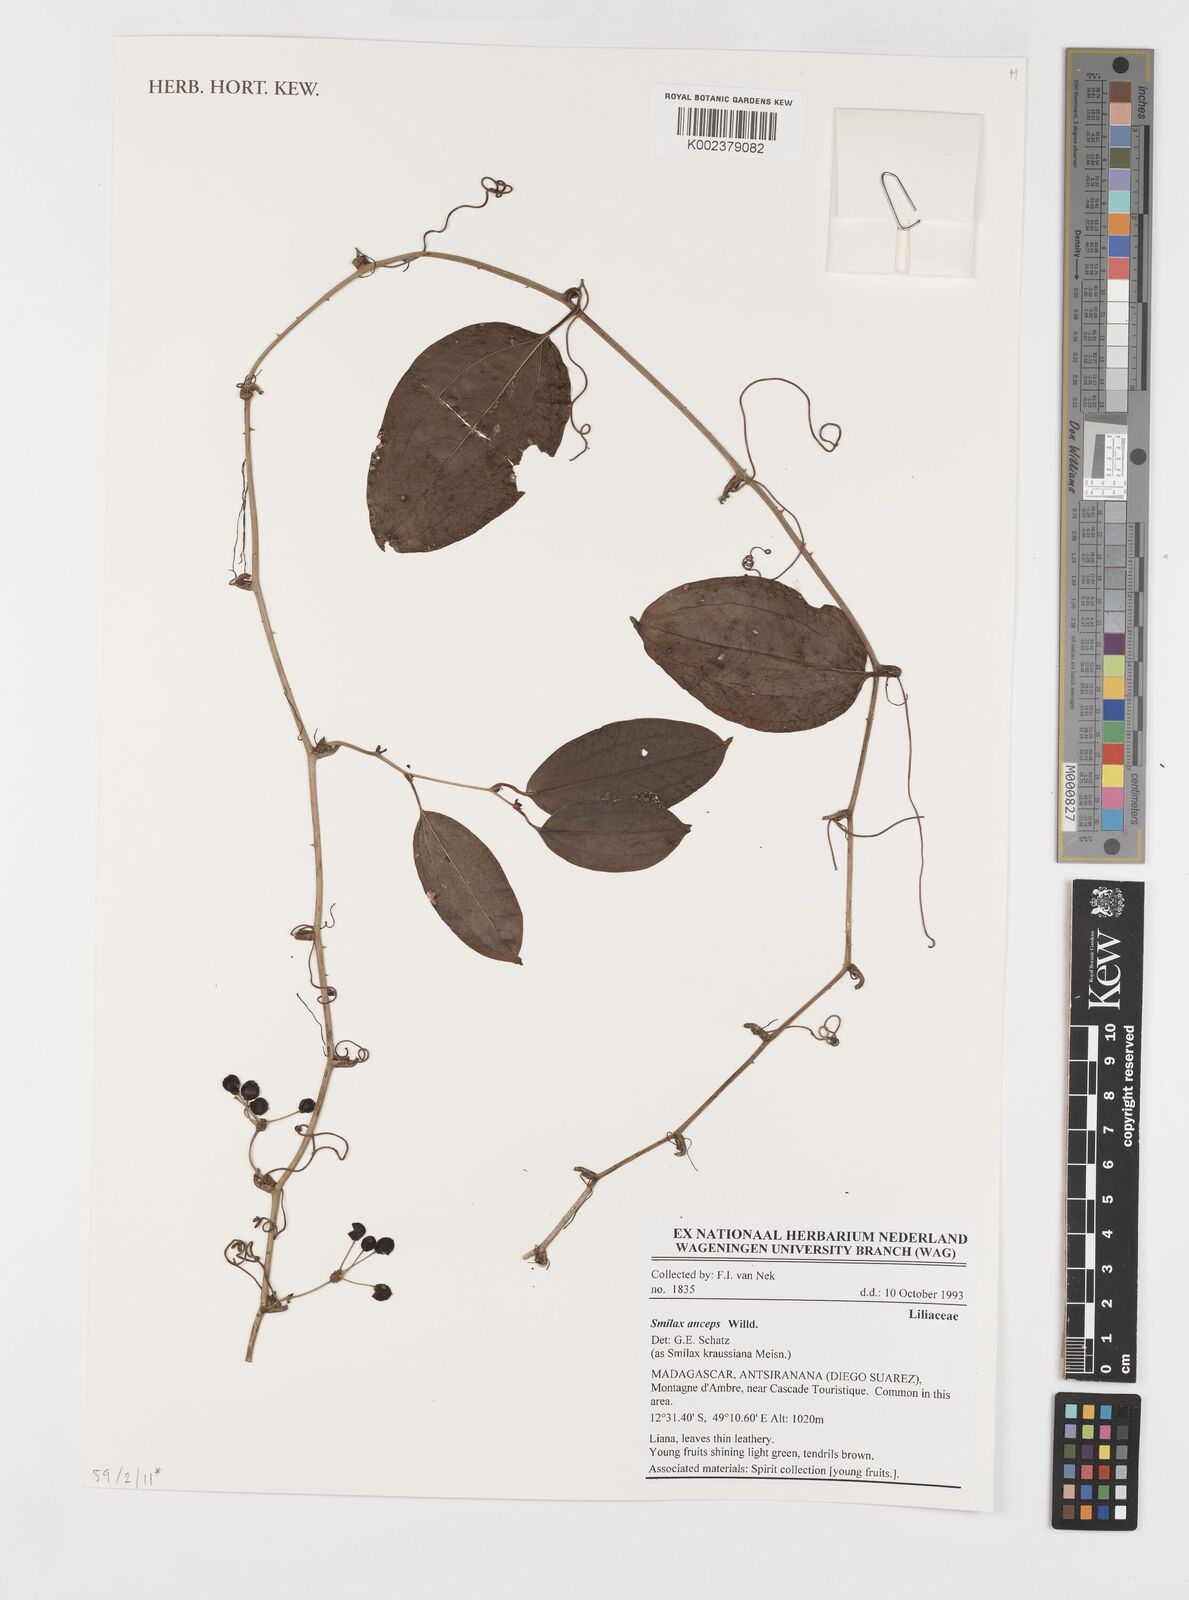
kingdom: Plantae
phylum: Tracheophyta
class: Liliopsida
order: Liliales
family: Smilacaceae
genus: Smilax
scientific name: Smilax anceps
